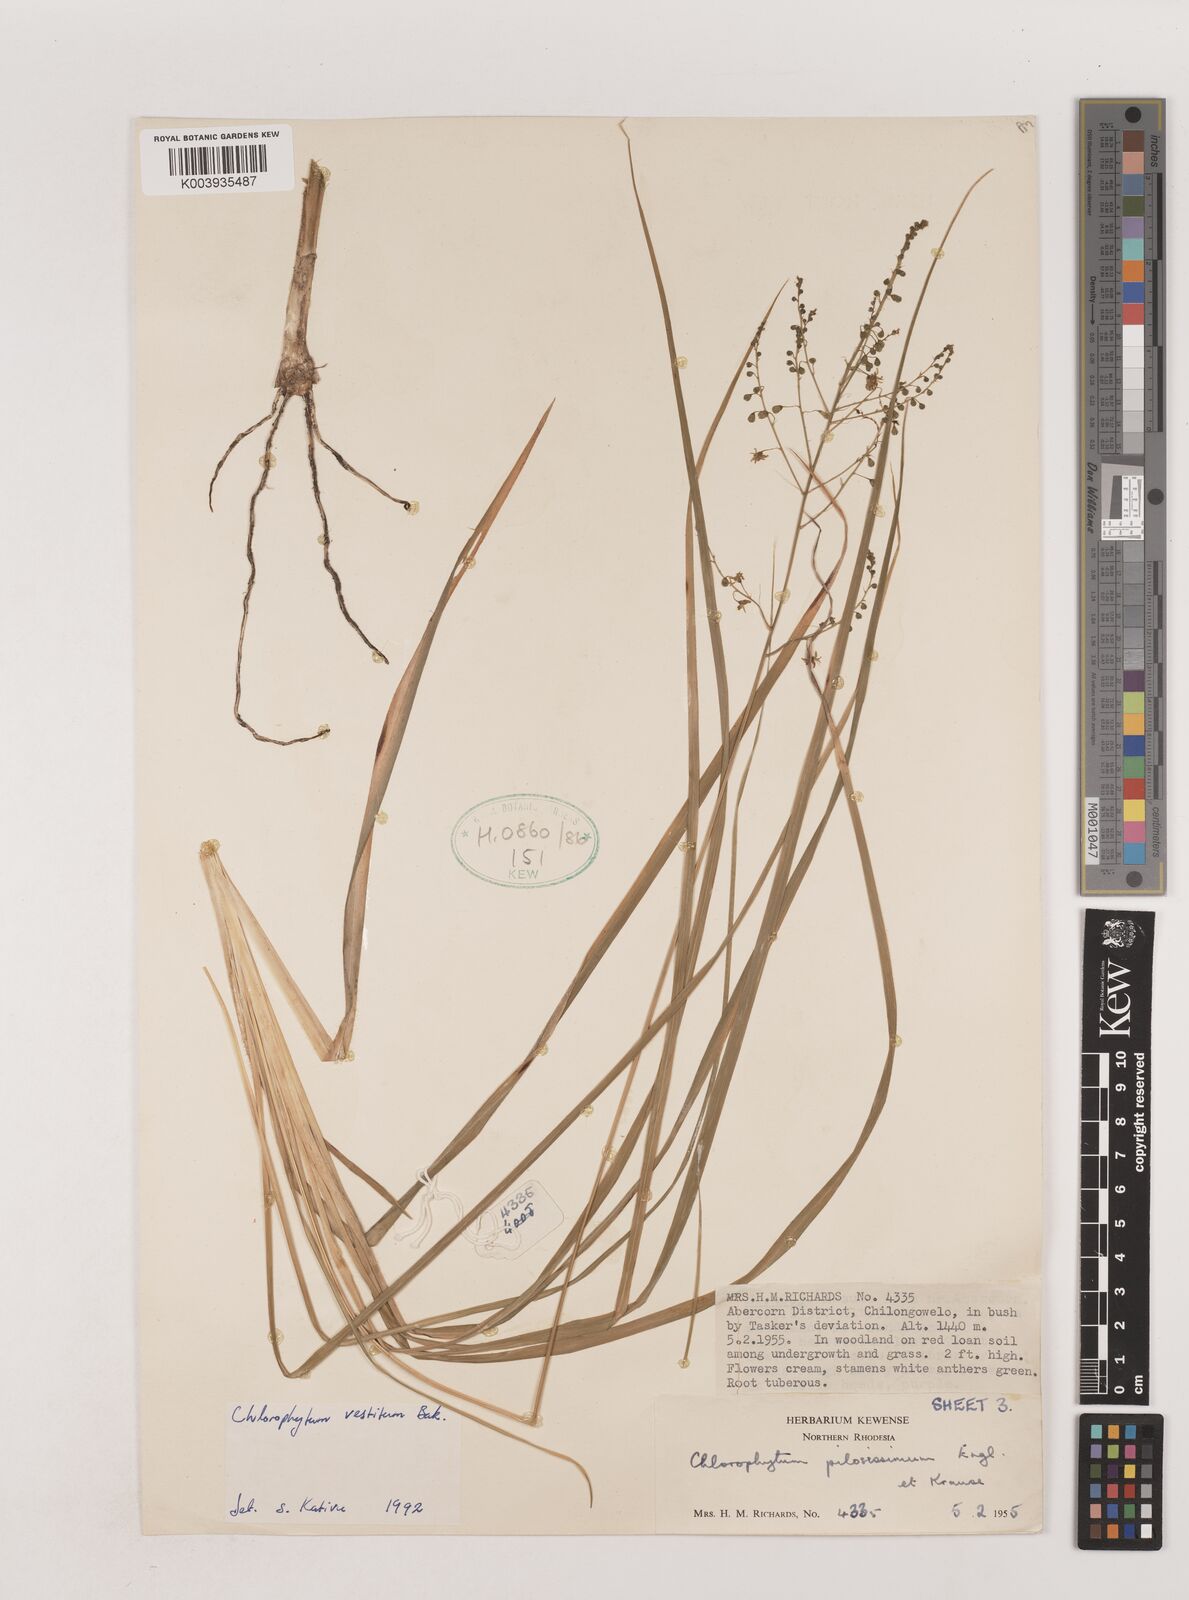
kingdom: Plantae
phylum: Tracheophyta
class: Liliopsida
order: Asparagales
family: Asparagaceae
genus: Chlorophytum
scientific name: Chlorophytum vestitum
